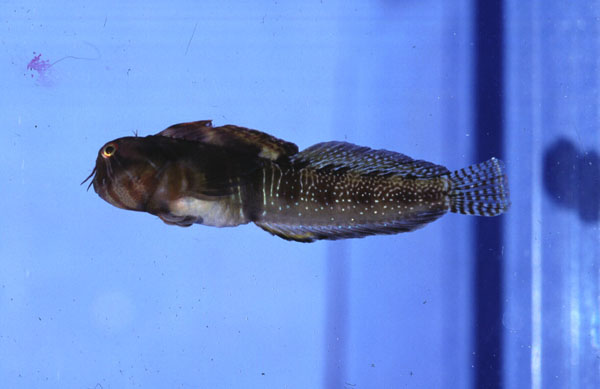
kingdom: Animalia
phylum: Chordata
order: Perciformes
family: Blenniidae
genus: Antennablennius
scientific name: Antennablennius australis
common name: Moustached rockskipper
